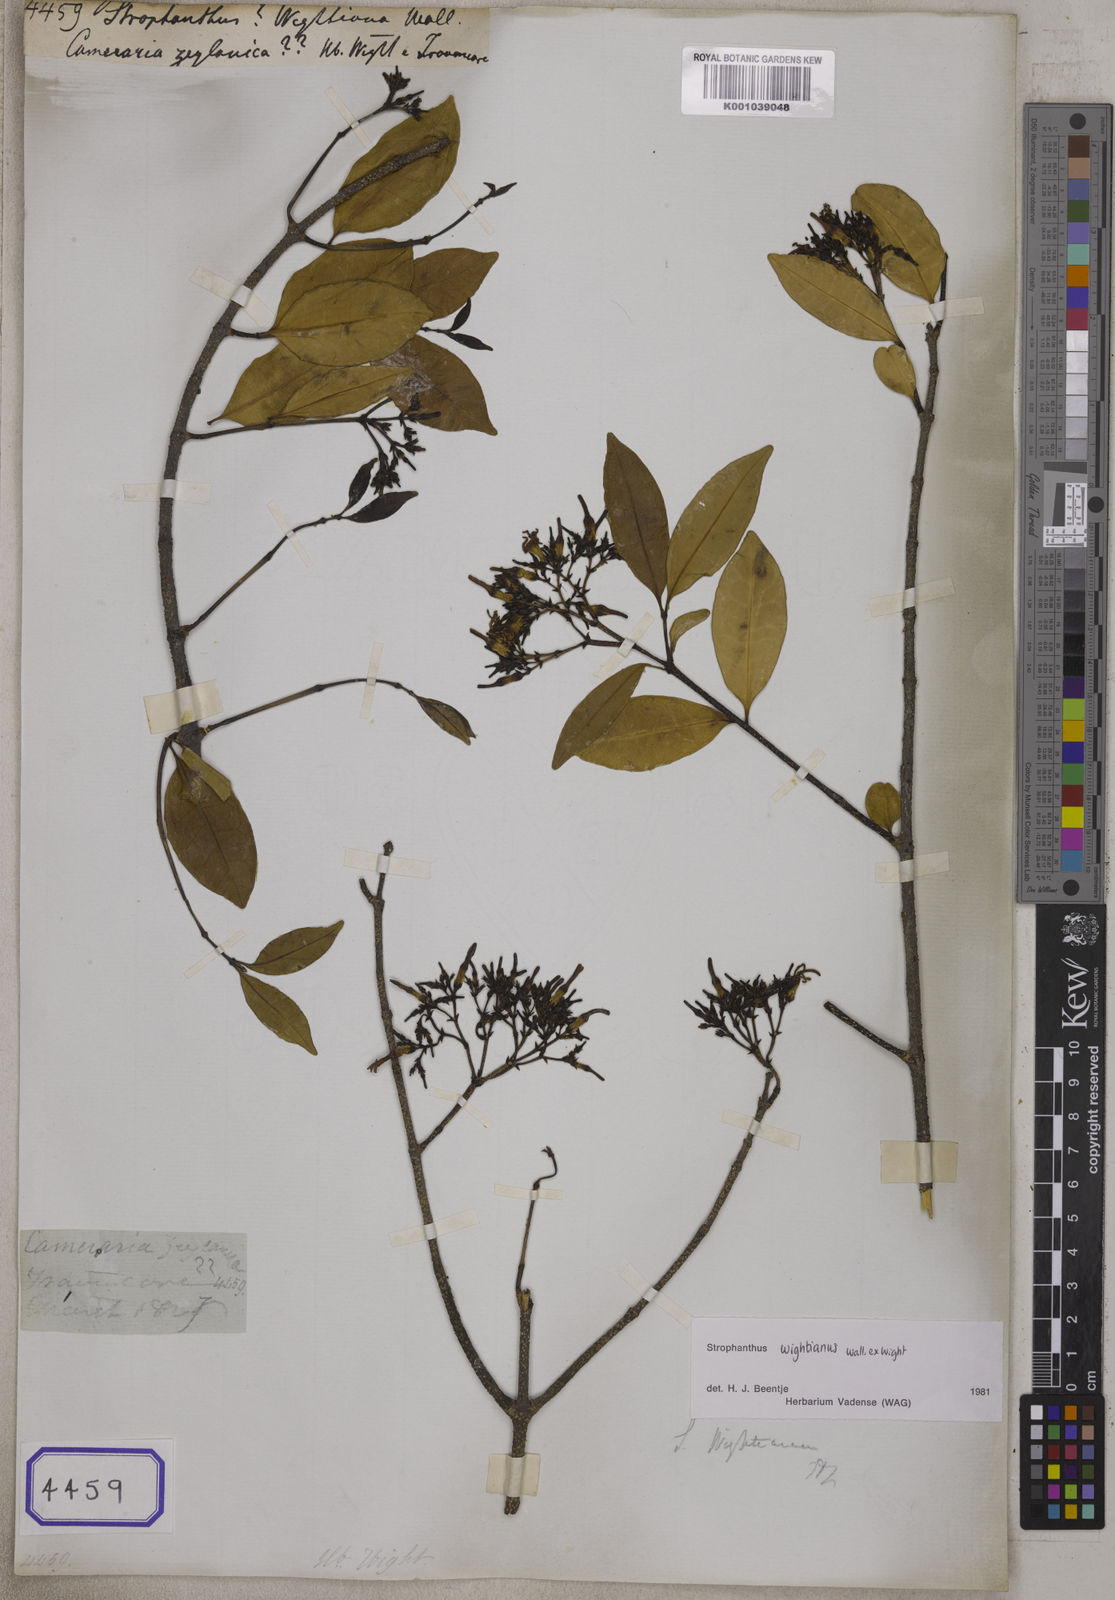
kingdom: Plantae
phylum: Tracheophyta
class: Magnoliopsida
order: Gentianales
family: Apocynaceae
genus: Strophanthus
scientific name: Strophanthus
